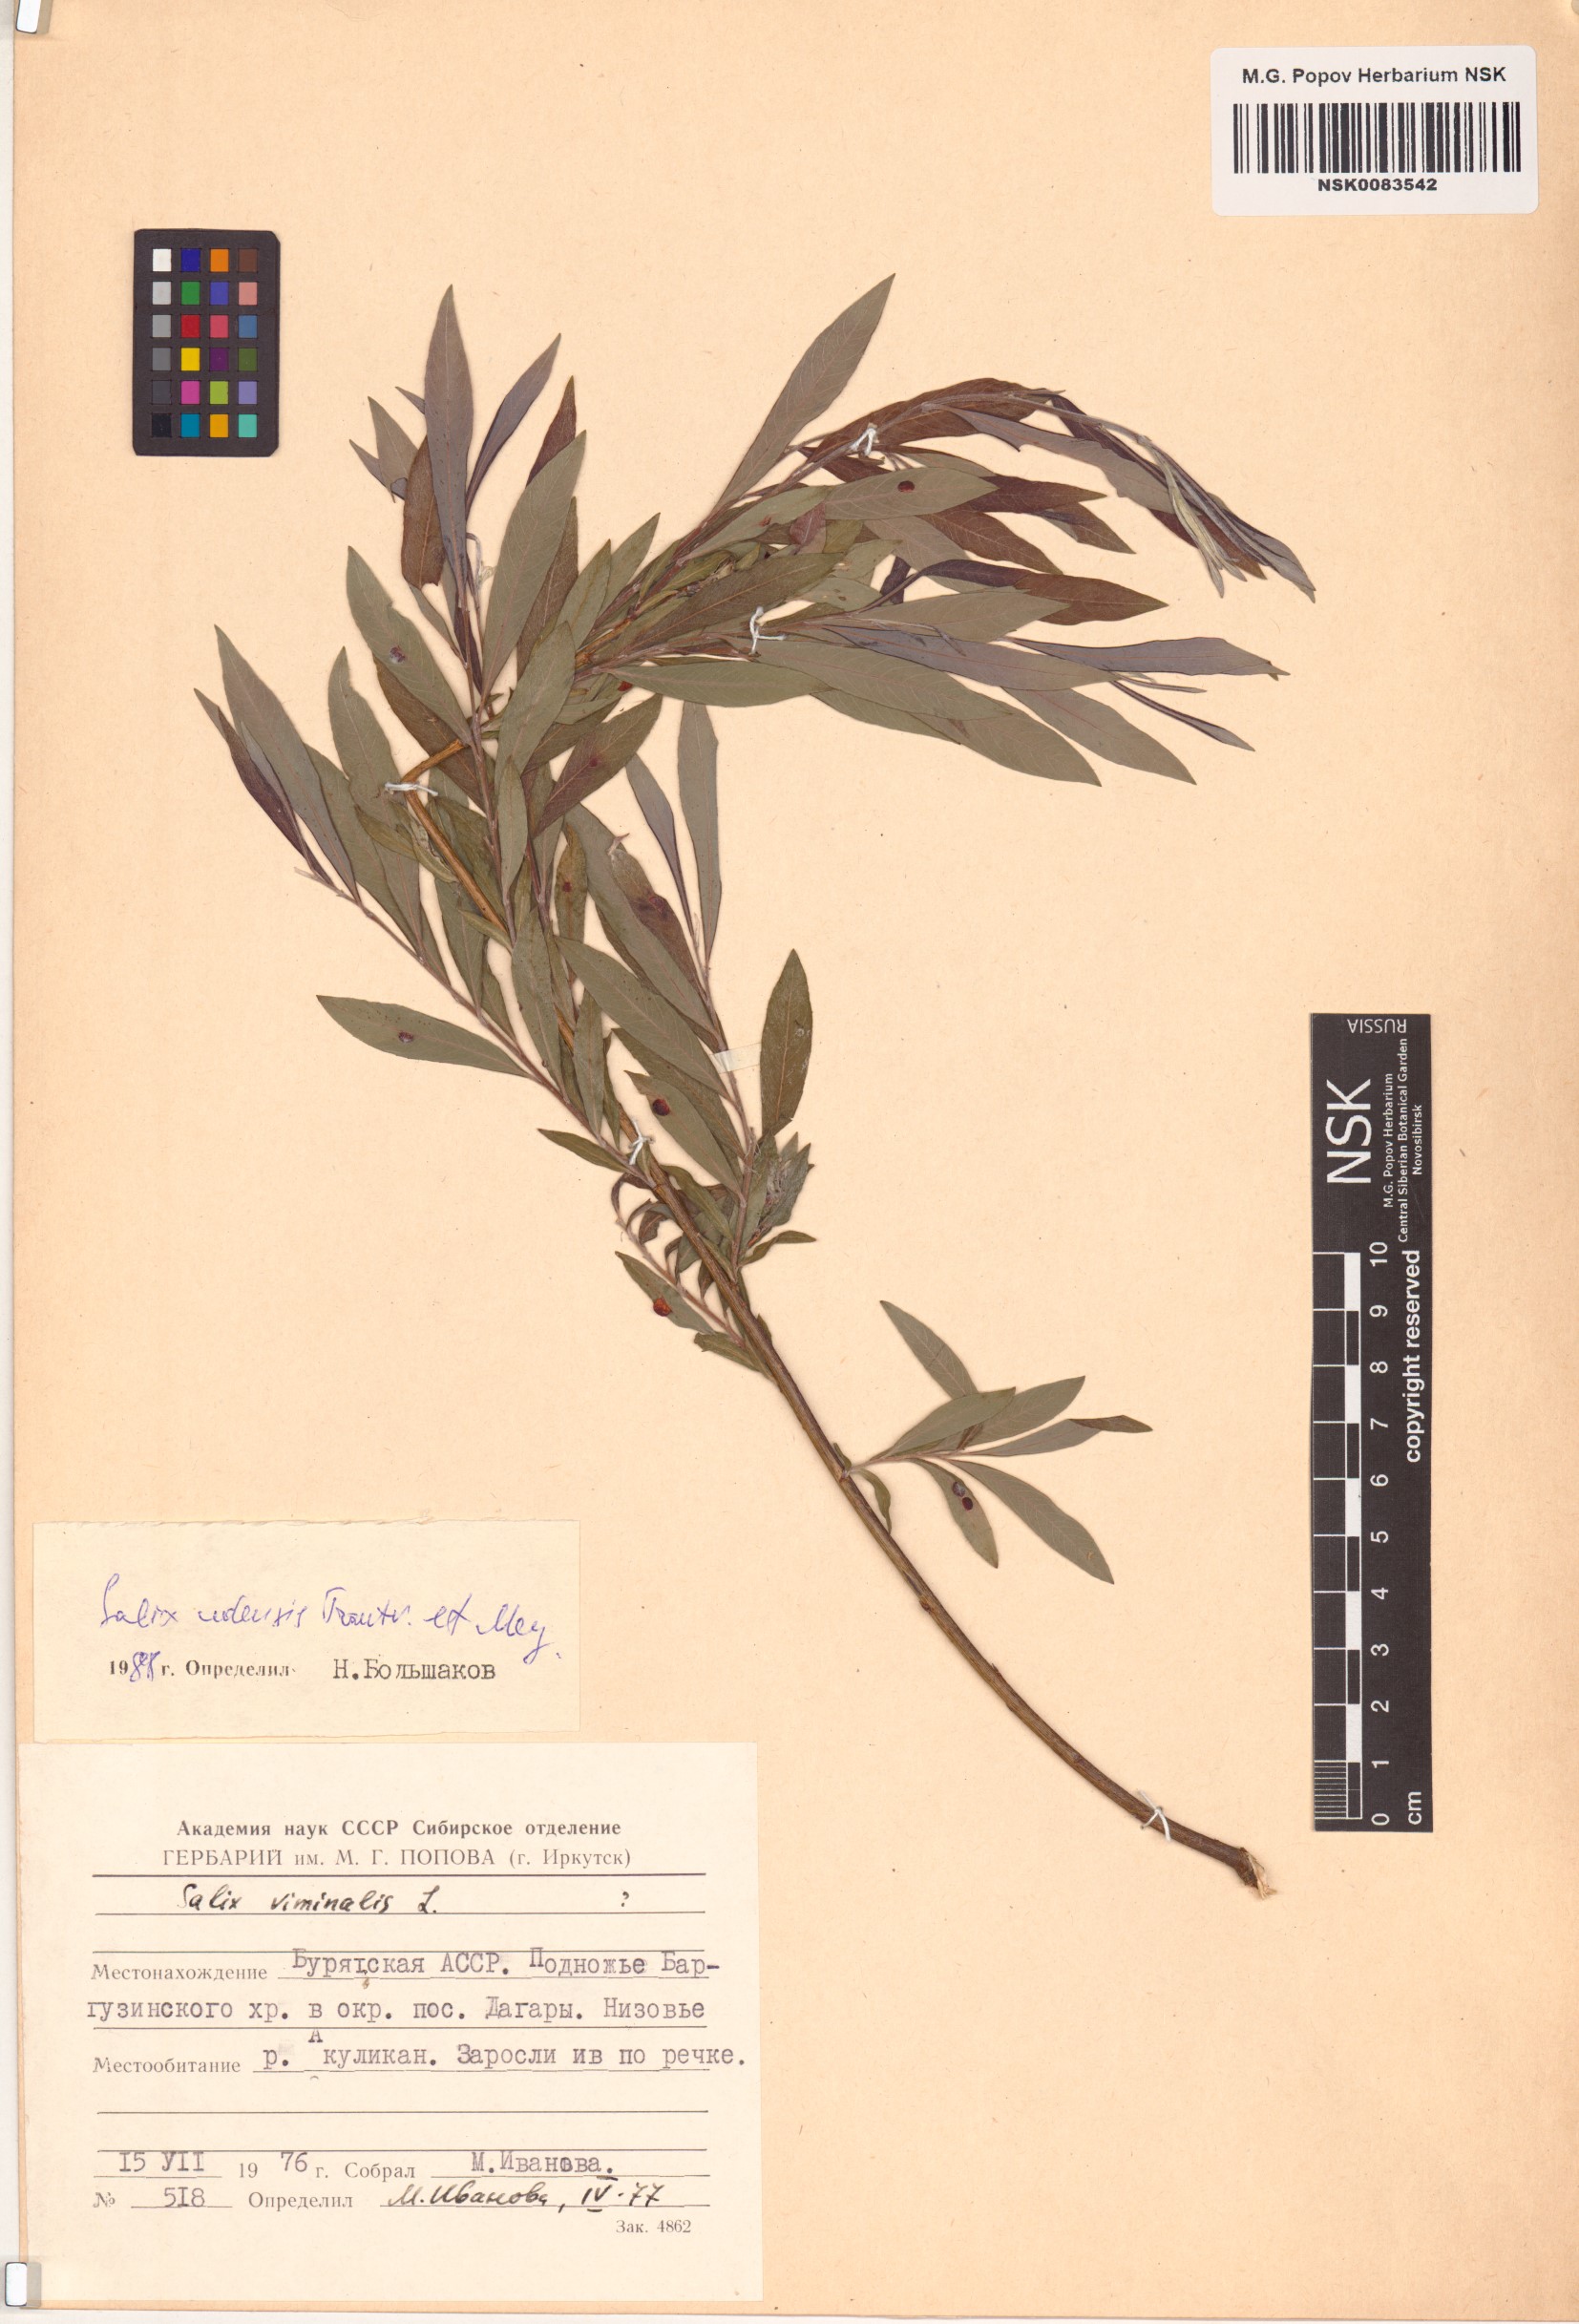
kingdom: Plantae
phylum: Tracheophyta
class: Magnoliopsida
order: Malpighiales
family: Salicaceae
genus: Salix
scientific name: Salix udensis
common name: Sachalin willow
